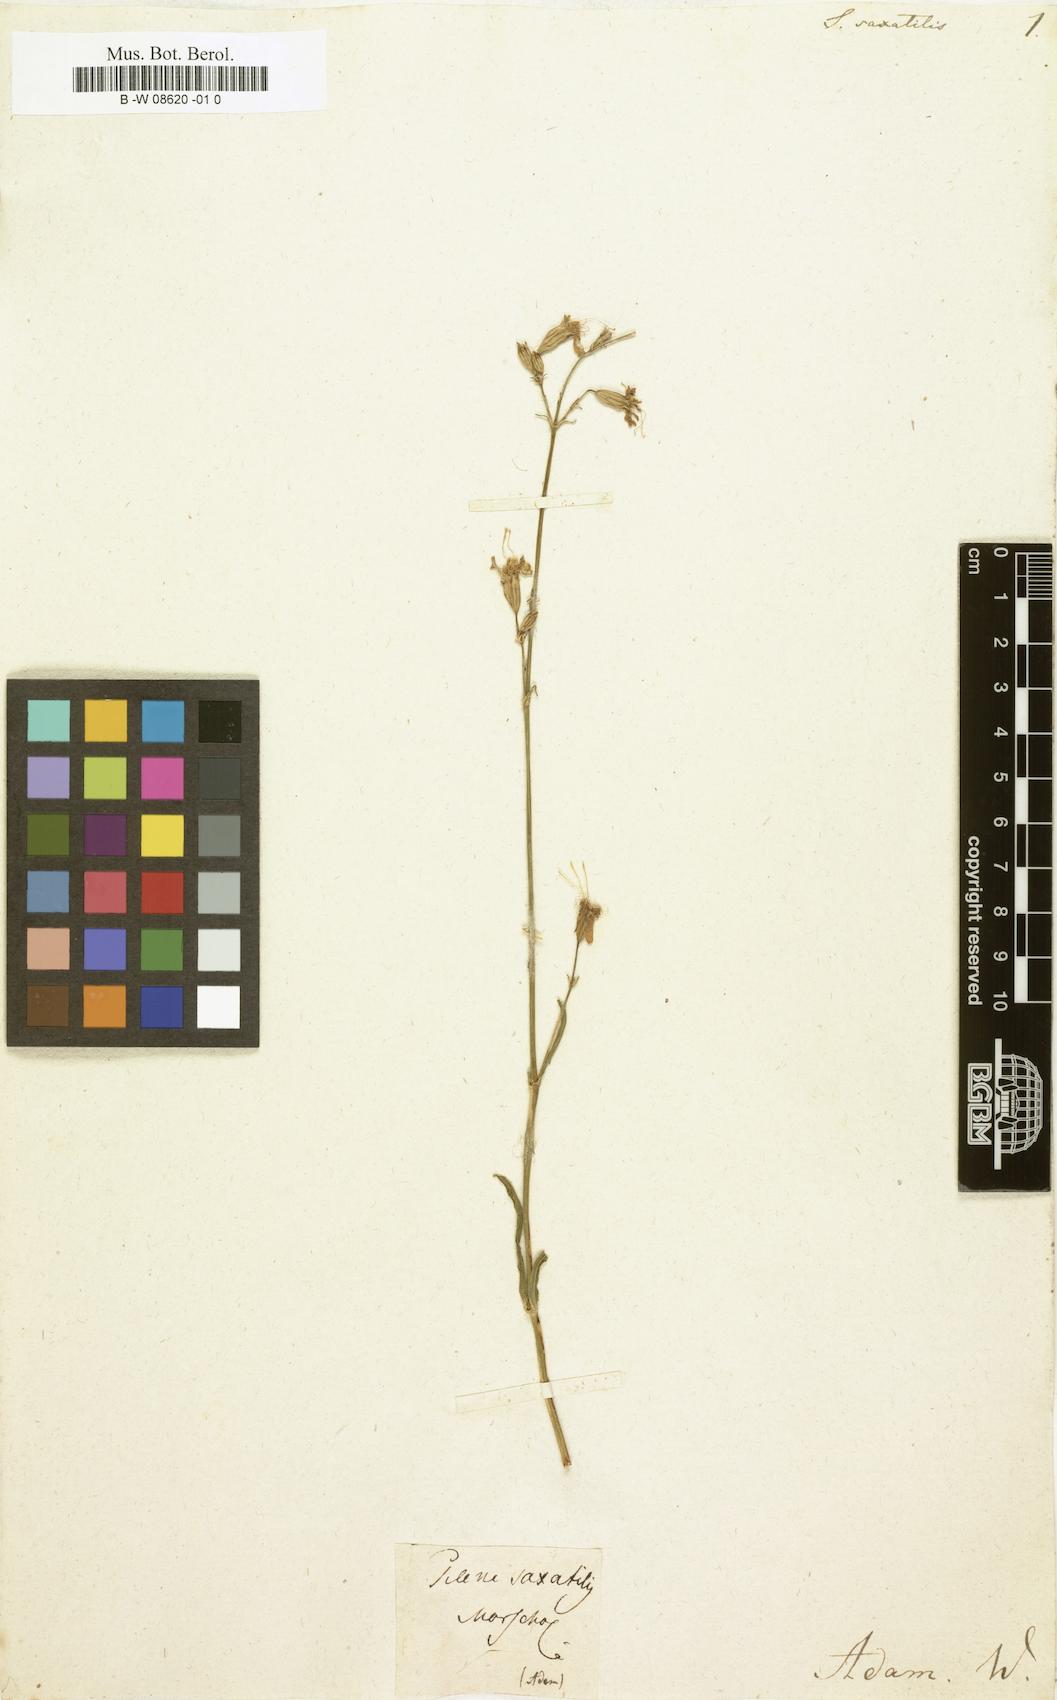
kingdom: Plantae
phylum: Tracheophyta
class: Magnoliopsida
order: Caryophyllales
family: Caryophyllaceae
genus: Silene
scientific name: Silene saxatilis
